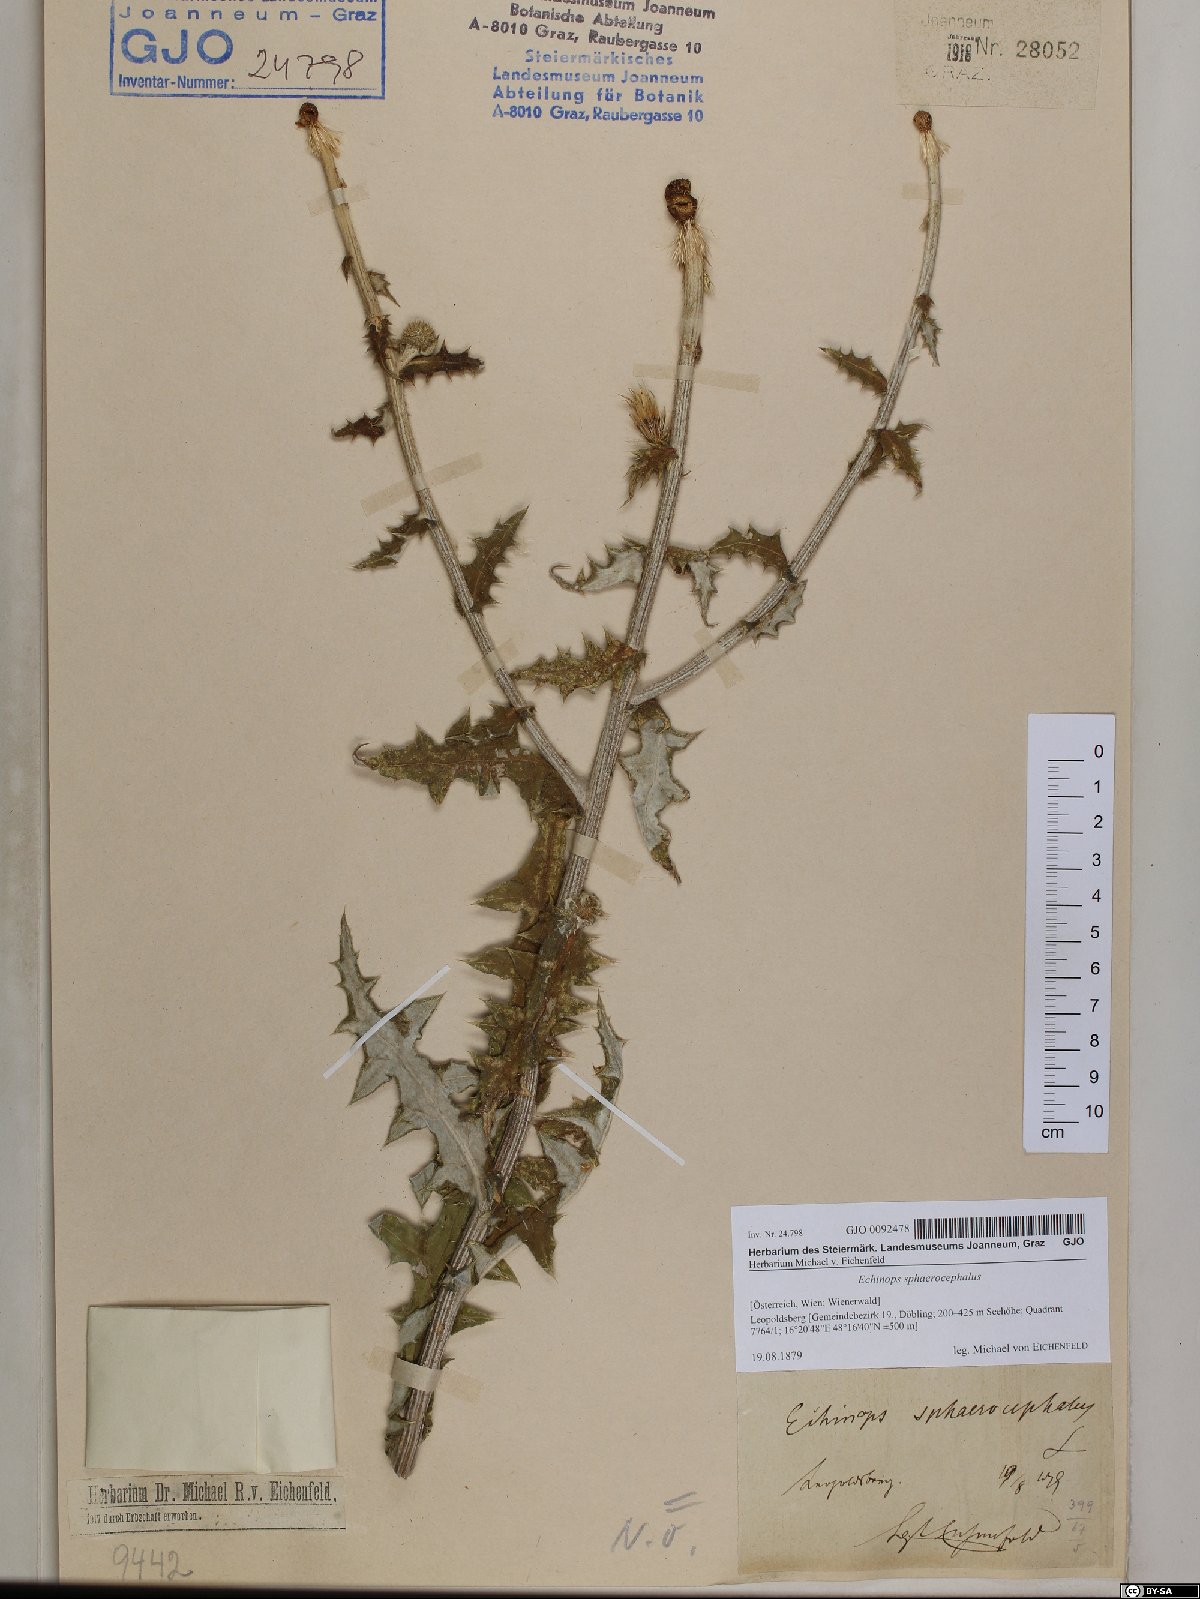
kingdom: Plantae
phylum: Tracheophyta
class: Magnoliopsida
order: Asterales
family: Asteraceae
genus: Echinops
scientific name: Echinops sphaerocephalus
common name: Glandular globe-thistle
